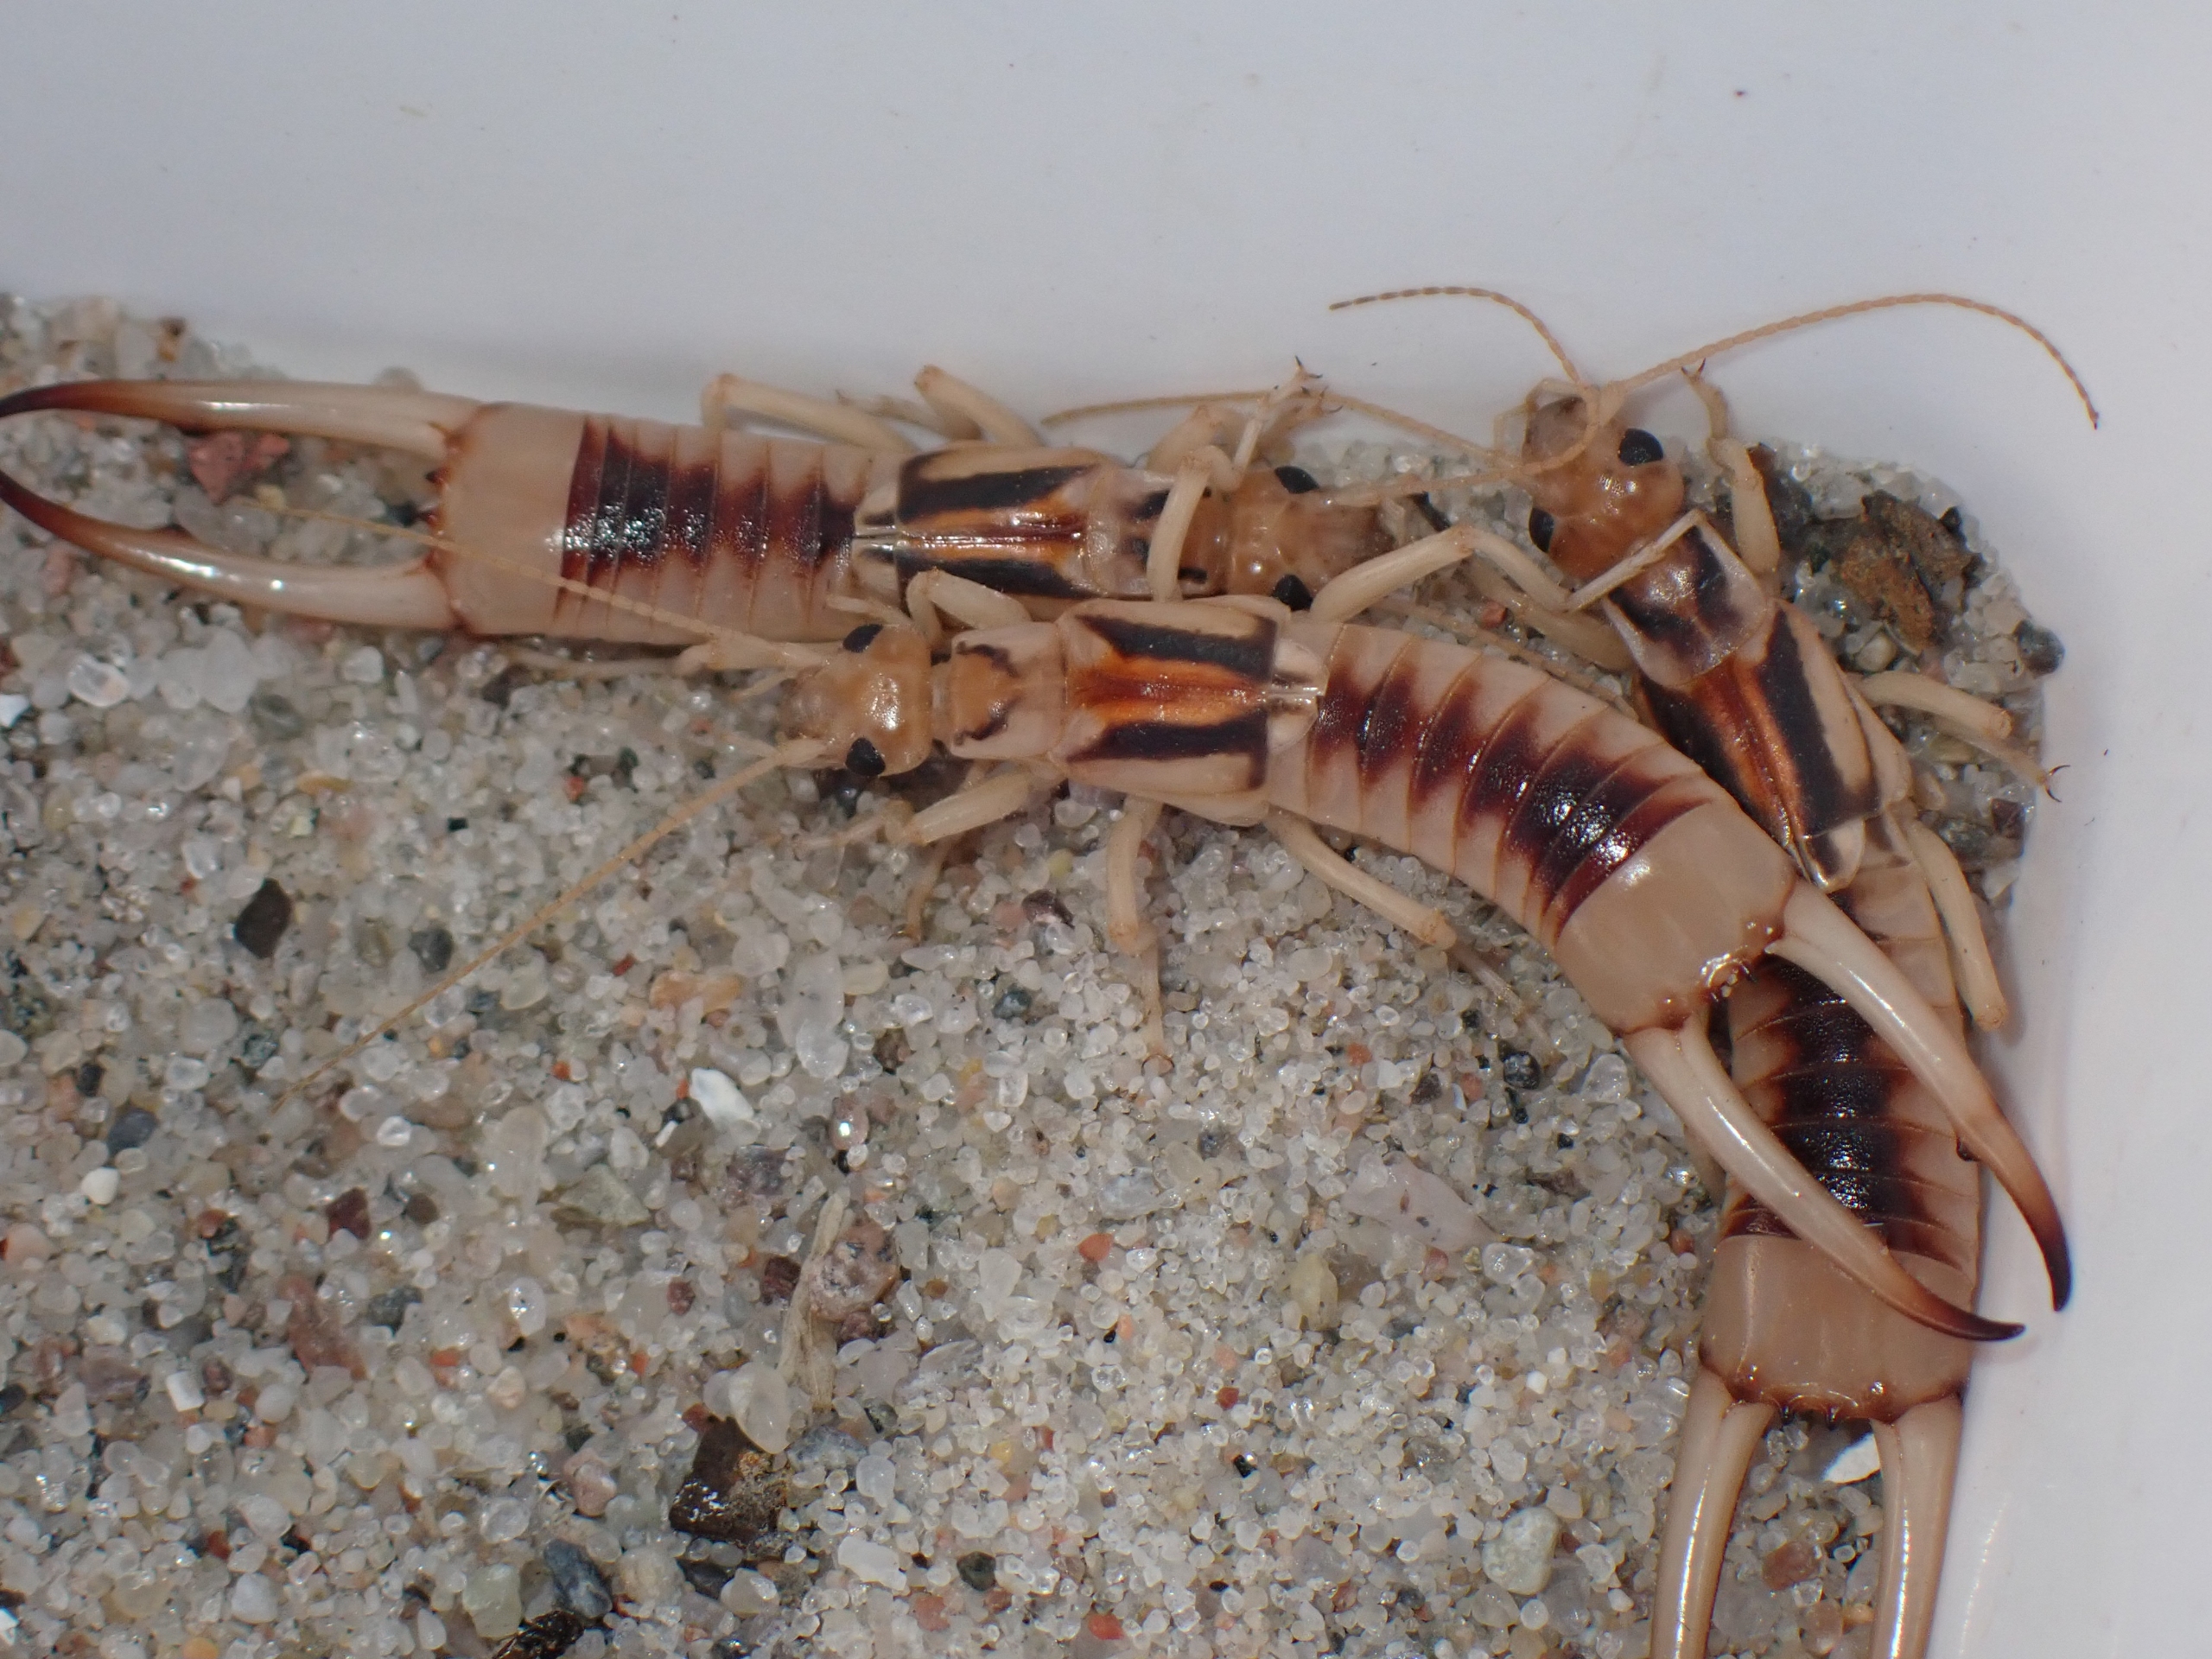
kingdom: Animalia
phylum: Arthropoda
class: Insecta
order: Dermaptera
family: Labiduridae
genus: Labidura
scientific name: Labidura riparia
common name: Sandørentvist
